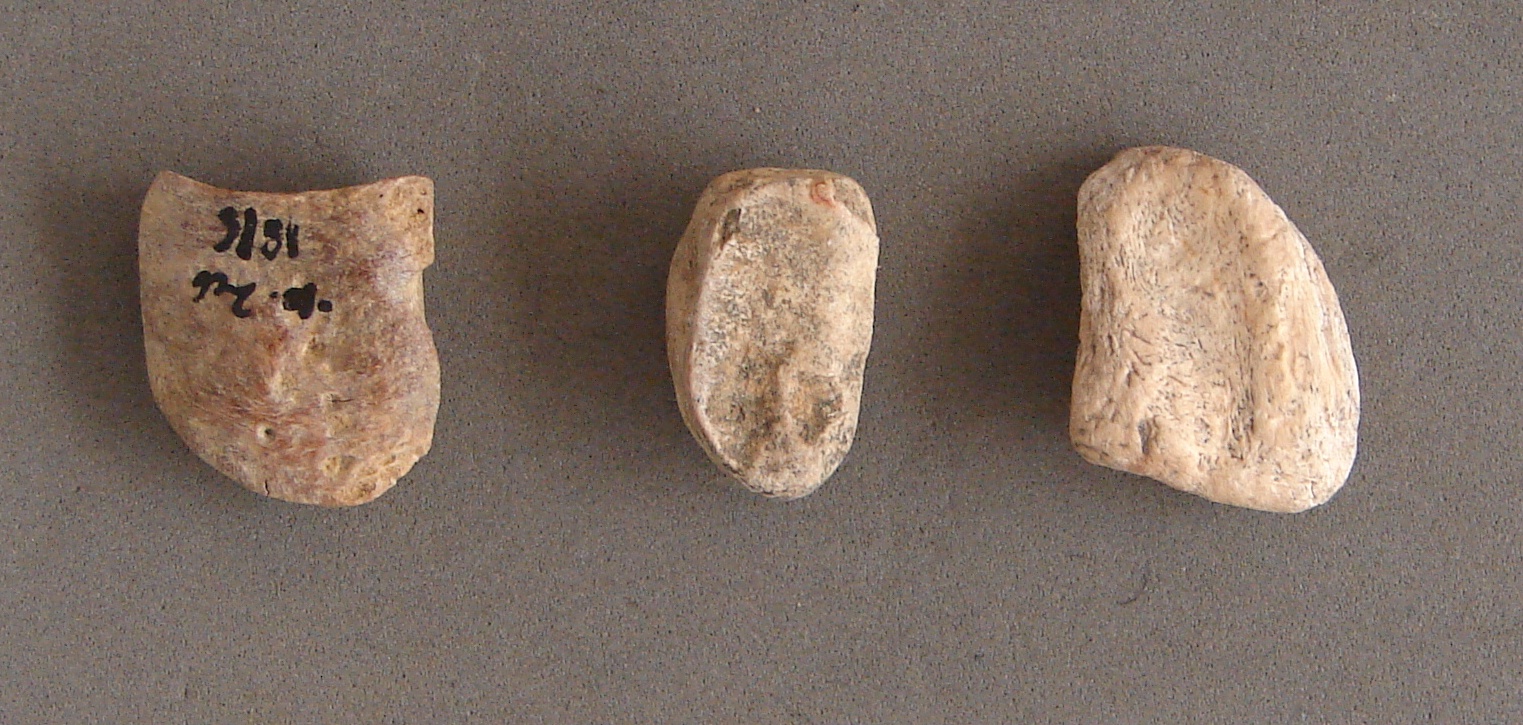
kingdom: Animalia
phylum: Chordata
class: Mammalia
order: Artiodactyla
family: Cervidae
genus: Rangifer
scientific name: Rangifer tarandus
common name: Reindeer
